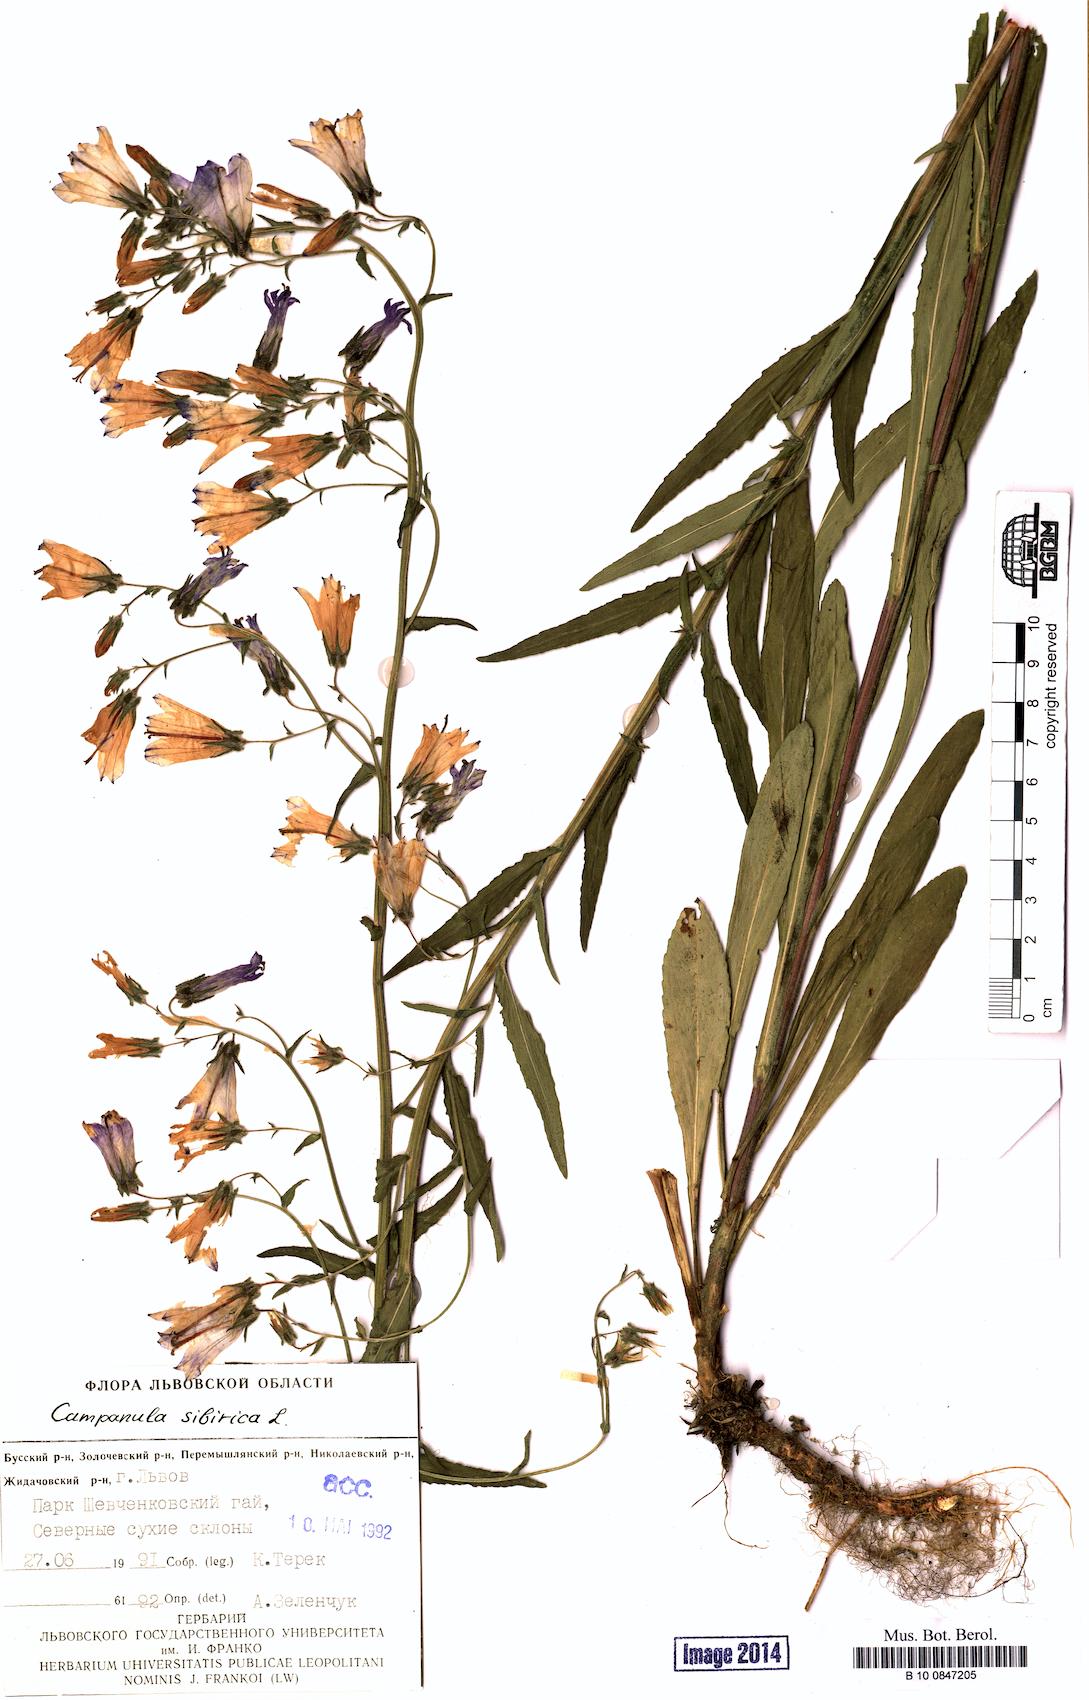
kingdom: Plantae
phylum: Tracheophyta
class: Magnoliopsida
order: Asterales
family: Campanulaceae
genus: Campanula
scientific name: Campanula sibirica
